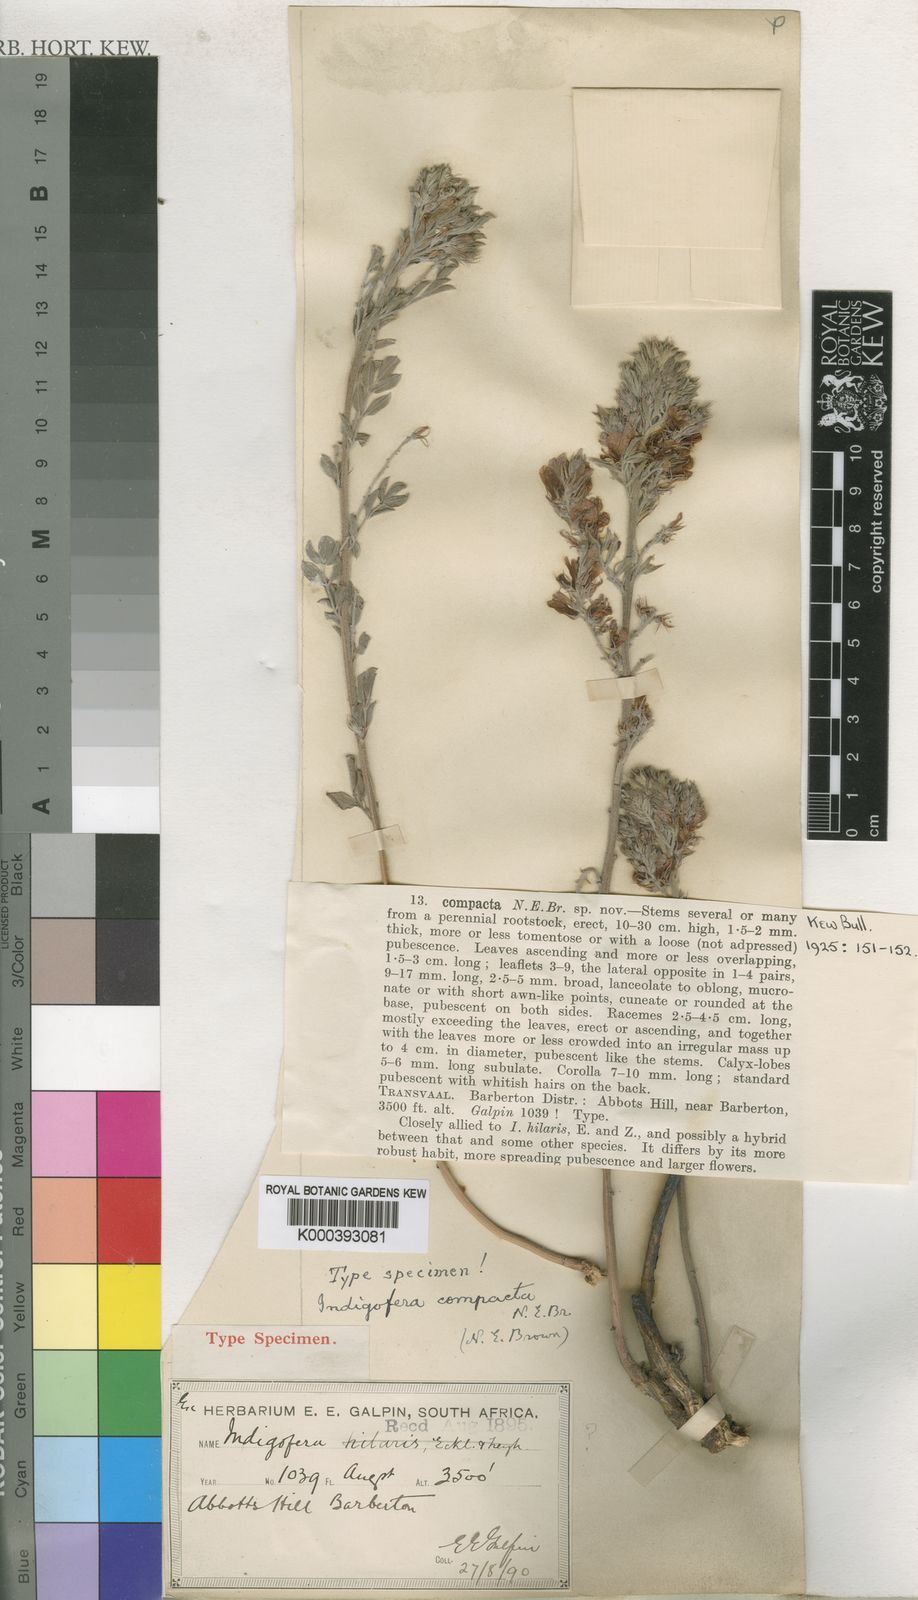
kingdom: Plantae
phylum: Tracheophyta
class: Magnoliopsida
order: Fabales
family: Fabaceae
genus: Indigofera
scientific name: Indigofera hilaris
